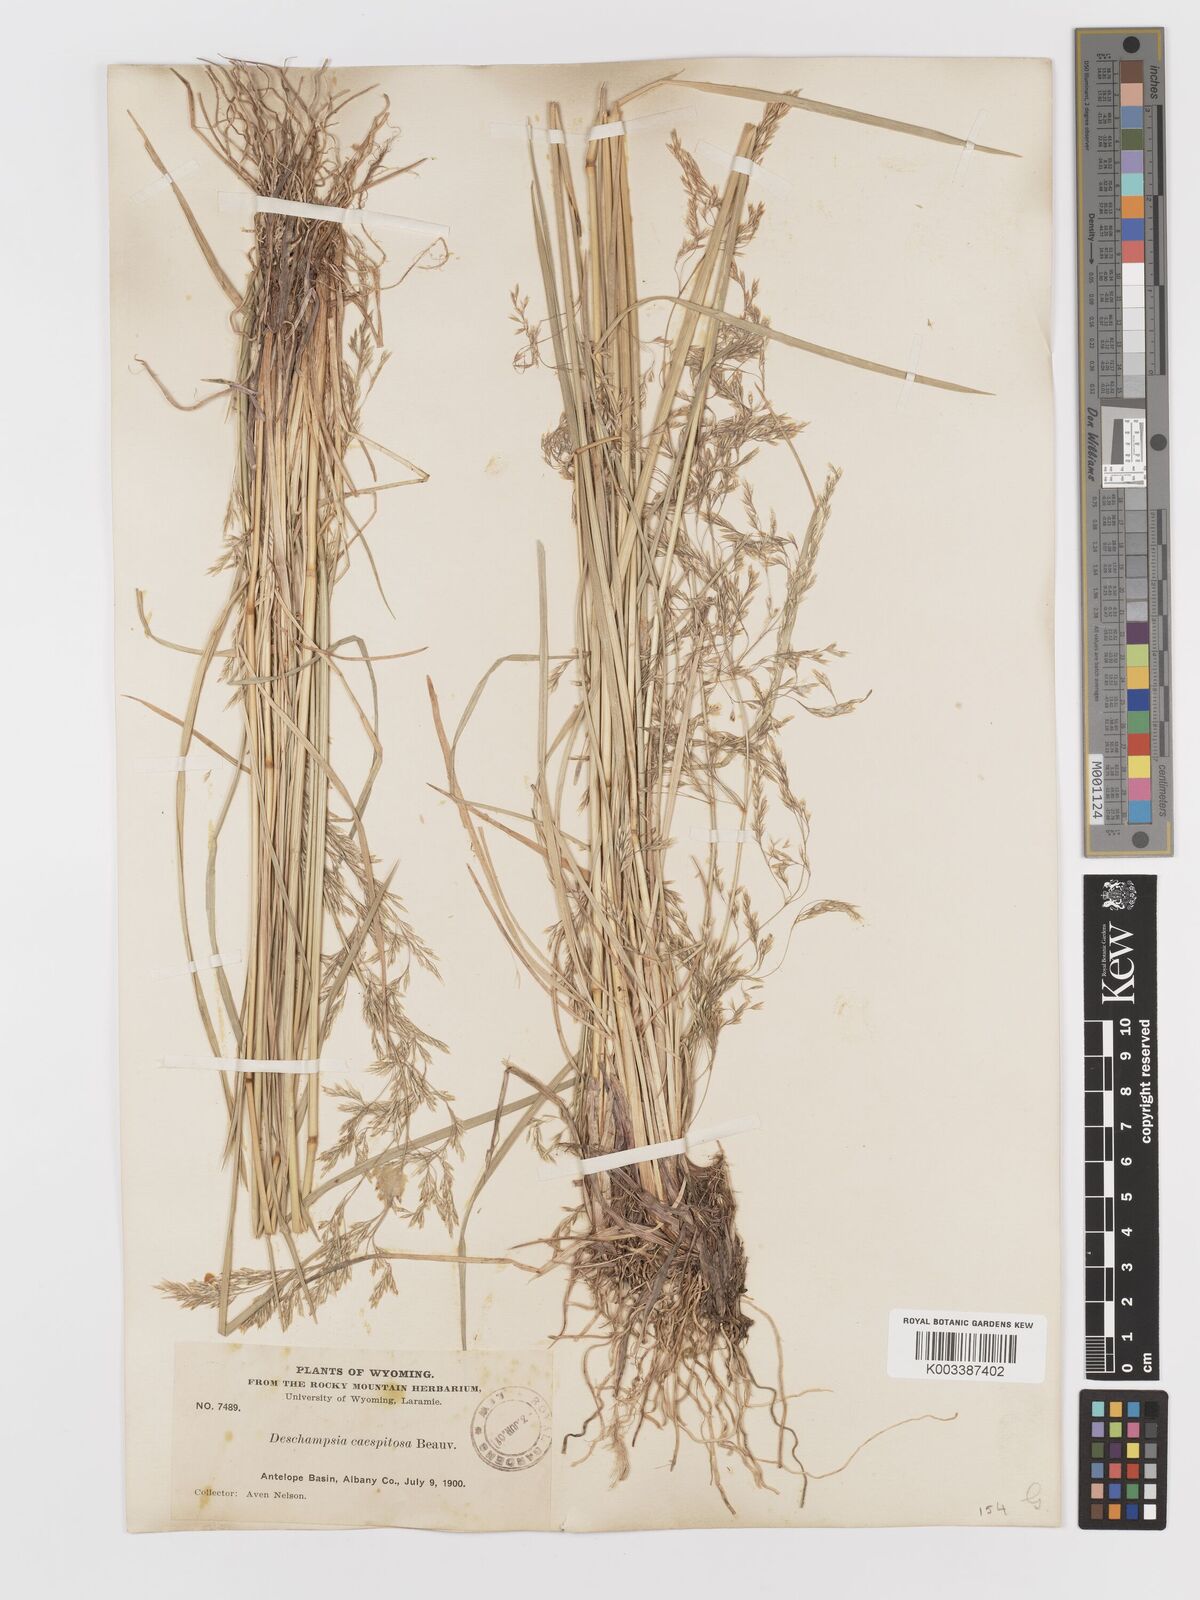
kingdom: Plantae
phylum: Tracheophyta
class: Liliopsida
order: Poales
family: Poaceae
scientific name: Poaceae
